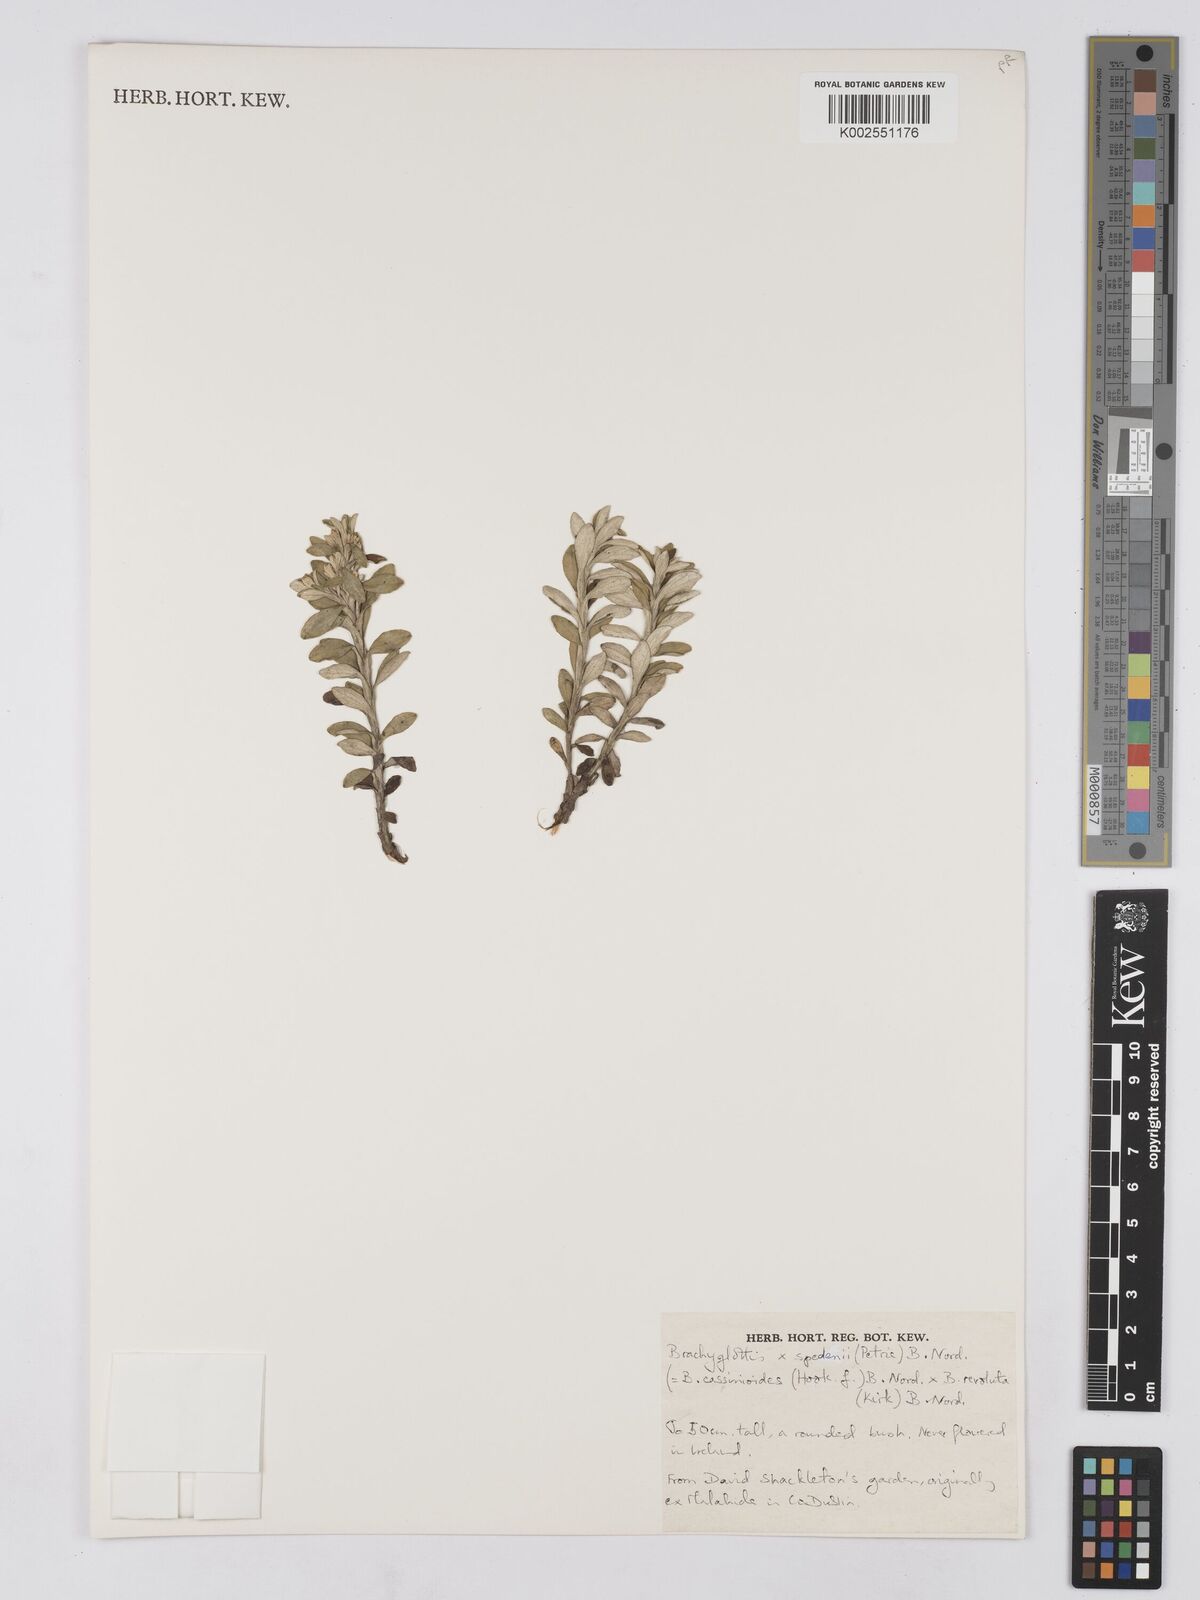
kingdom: Plantae
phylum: Tracheophyta
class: Magnoliopsida
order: Asterales
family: Asteraceae
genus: Brachyglottis
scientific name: Brachyglottis spedenii
